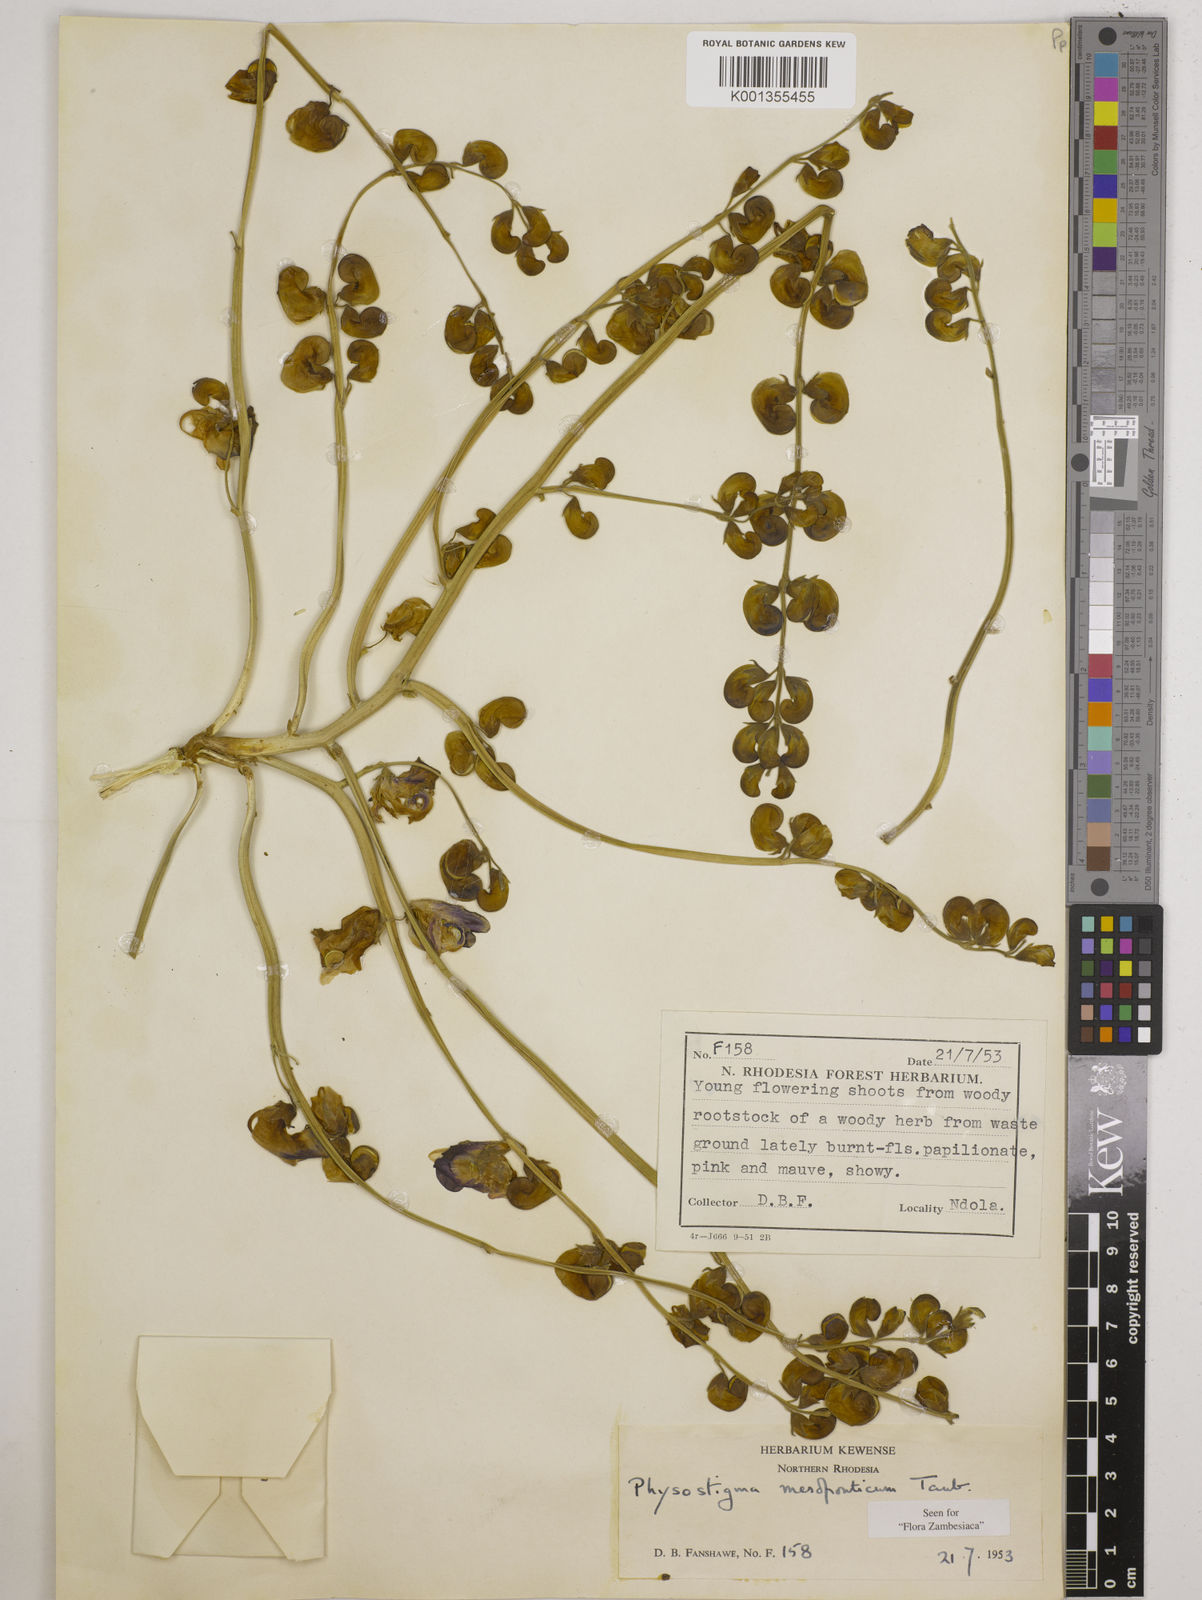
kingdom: Plantae
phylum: Tracheophyta
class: Magnoliopsida
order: Fabales
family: Fabaceae
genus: Physostigma
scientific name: Physostigma mesoponticum
